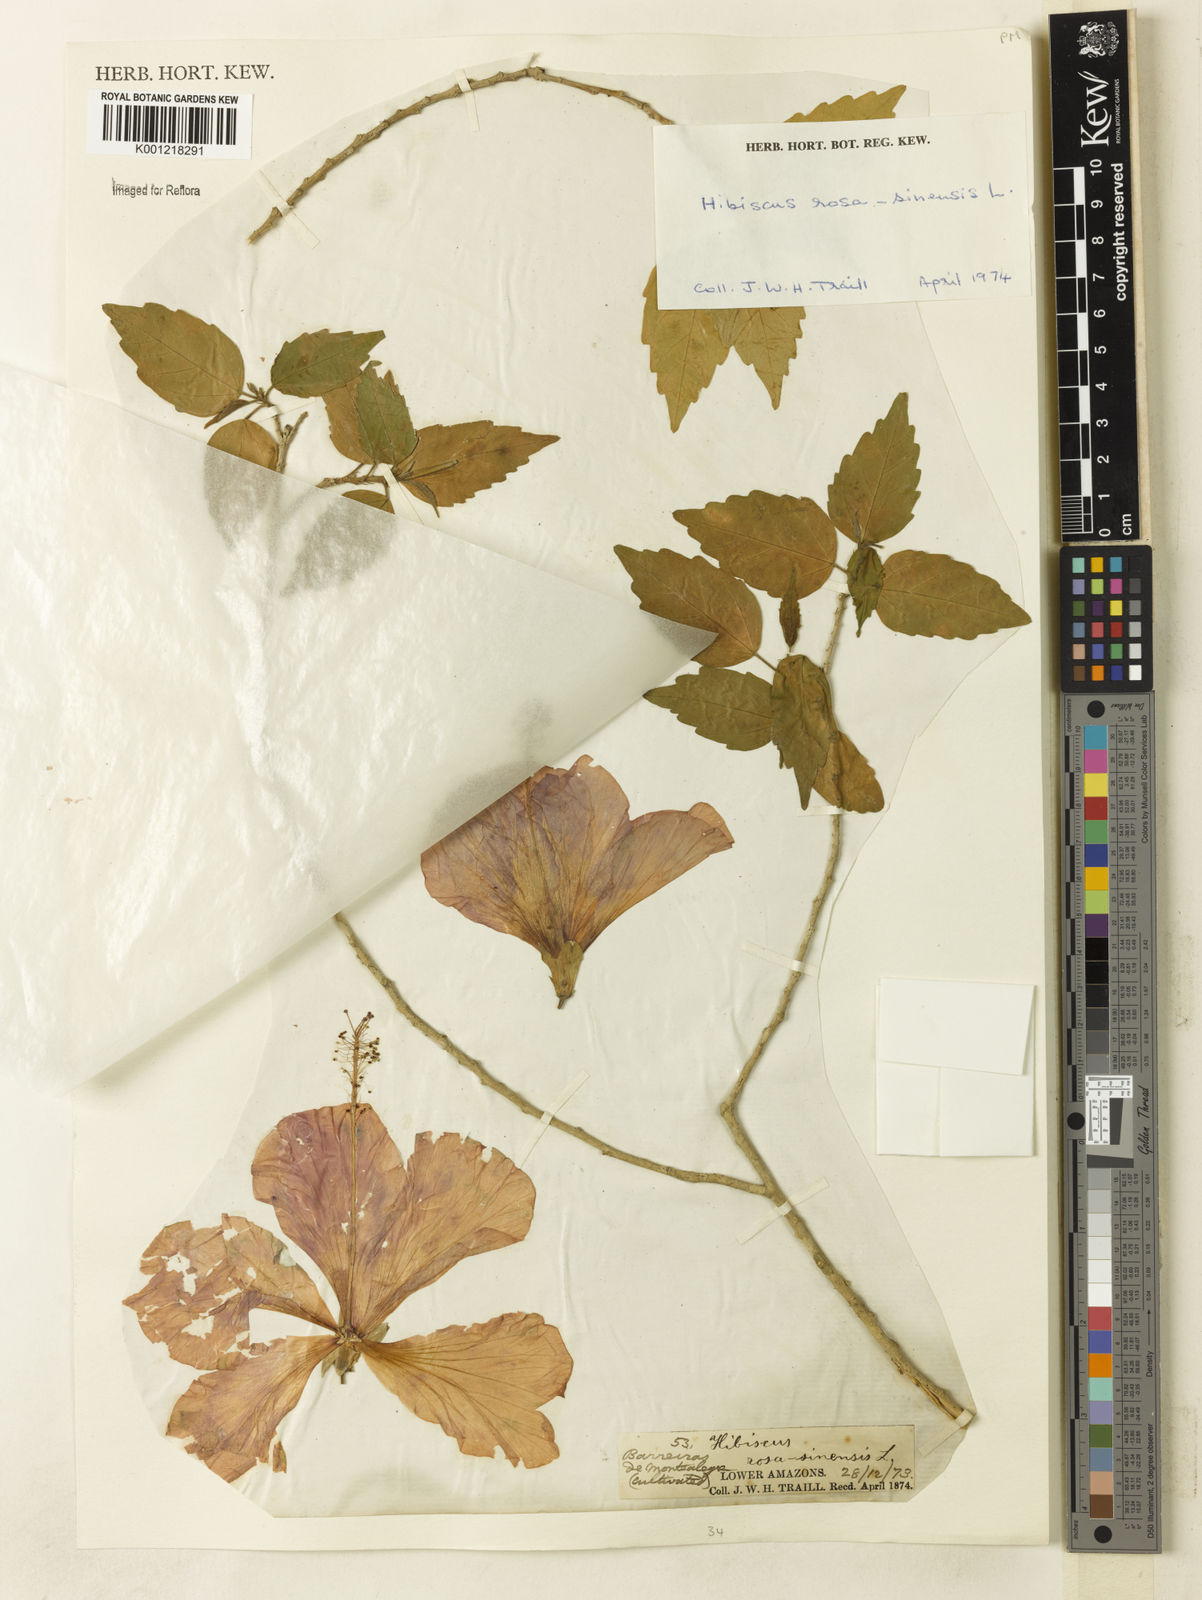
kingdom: Plantae
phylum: Tracheophyta
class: Magnoliopsida
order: Malvales
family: Malvaceae
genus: Hibiscus
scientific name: Hibiscus rosa-sinensis
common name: Hibiscus
